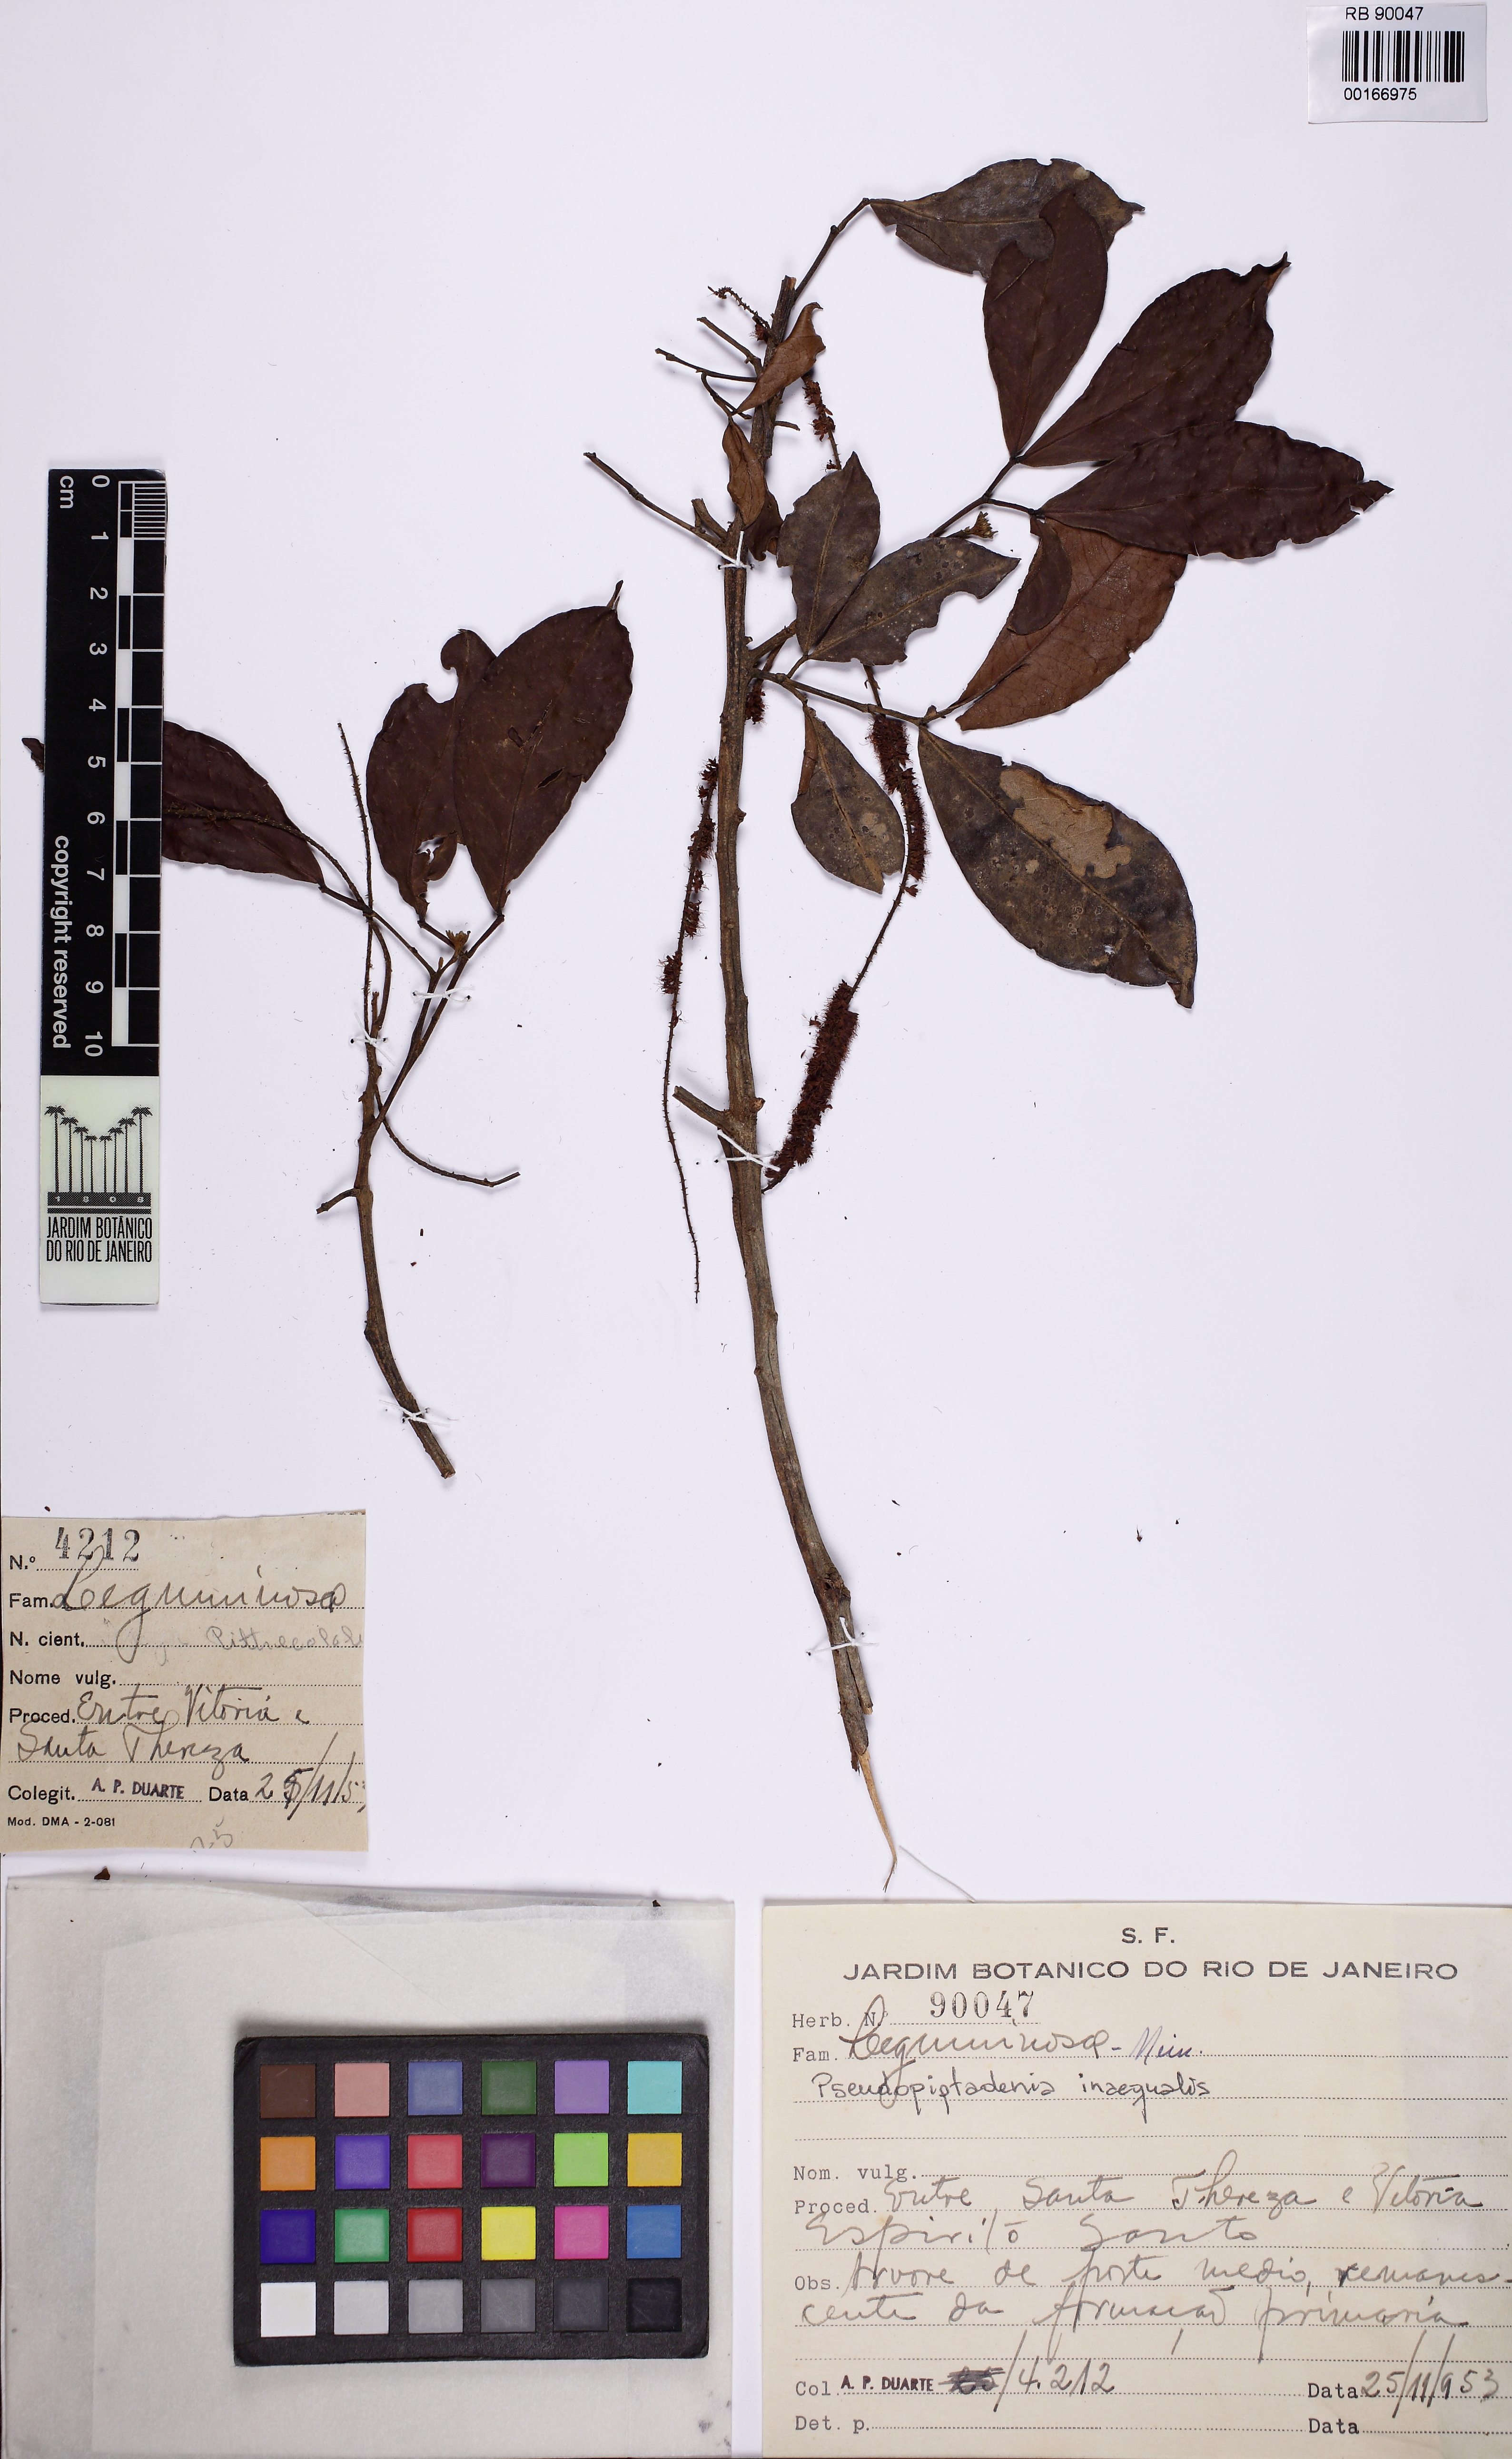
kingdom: Plantae
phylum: Tracheophyta
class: Magnoliopsida
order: Fabales
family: Fabaceae
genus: Pseudopiptadenia
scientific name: Pseudopiptadenia inaequalis
